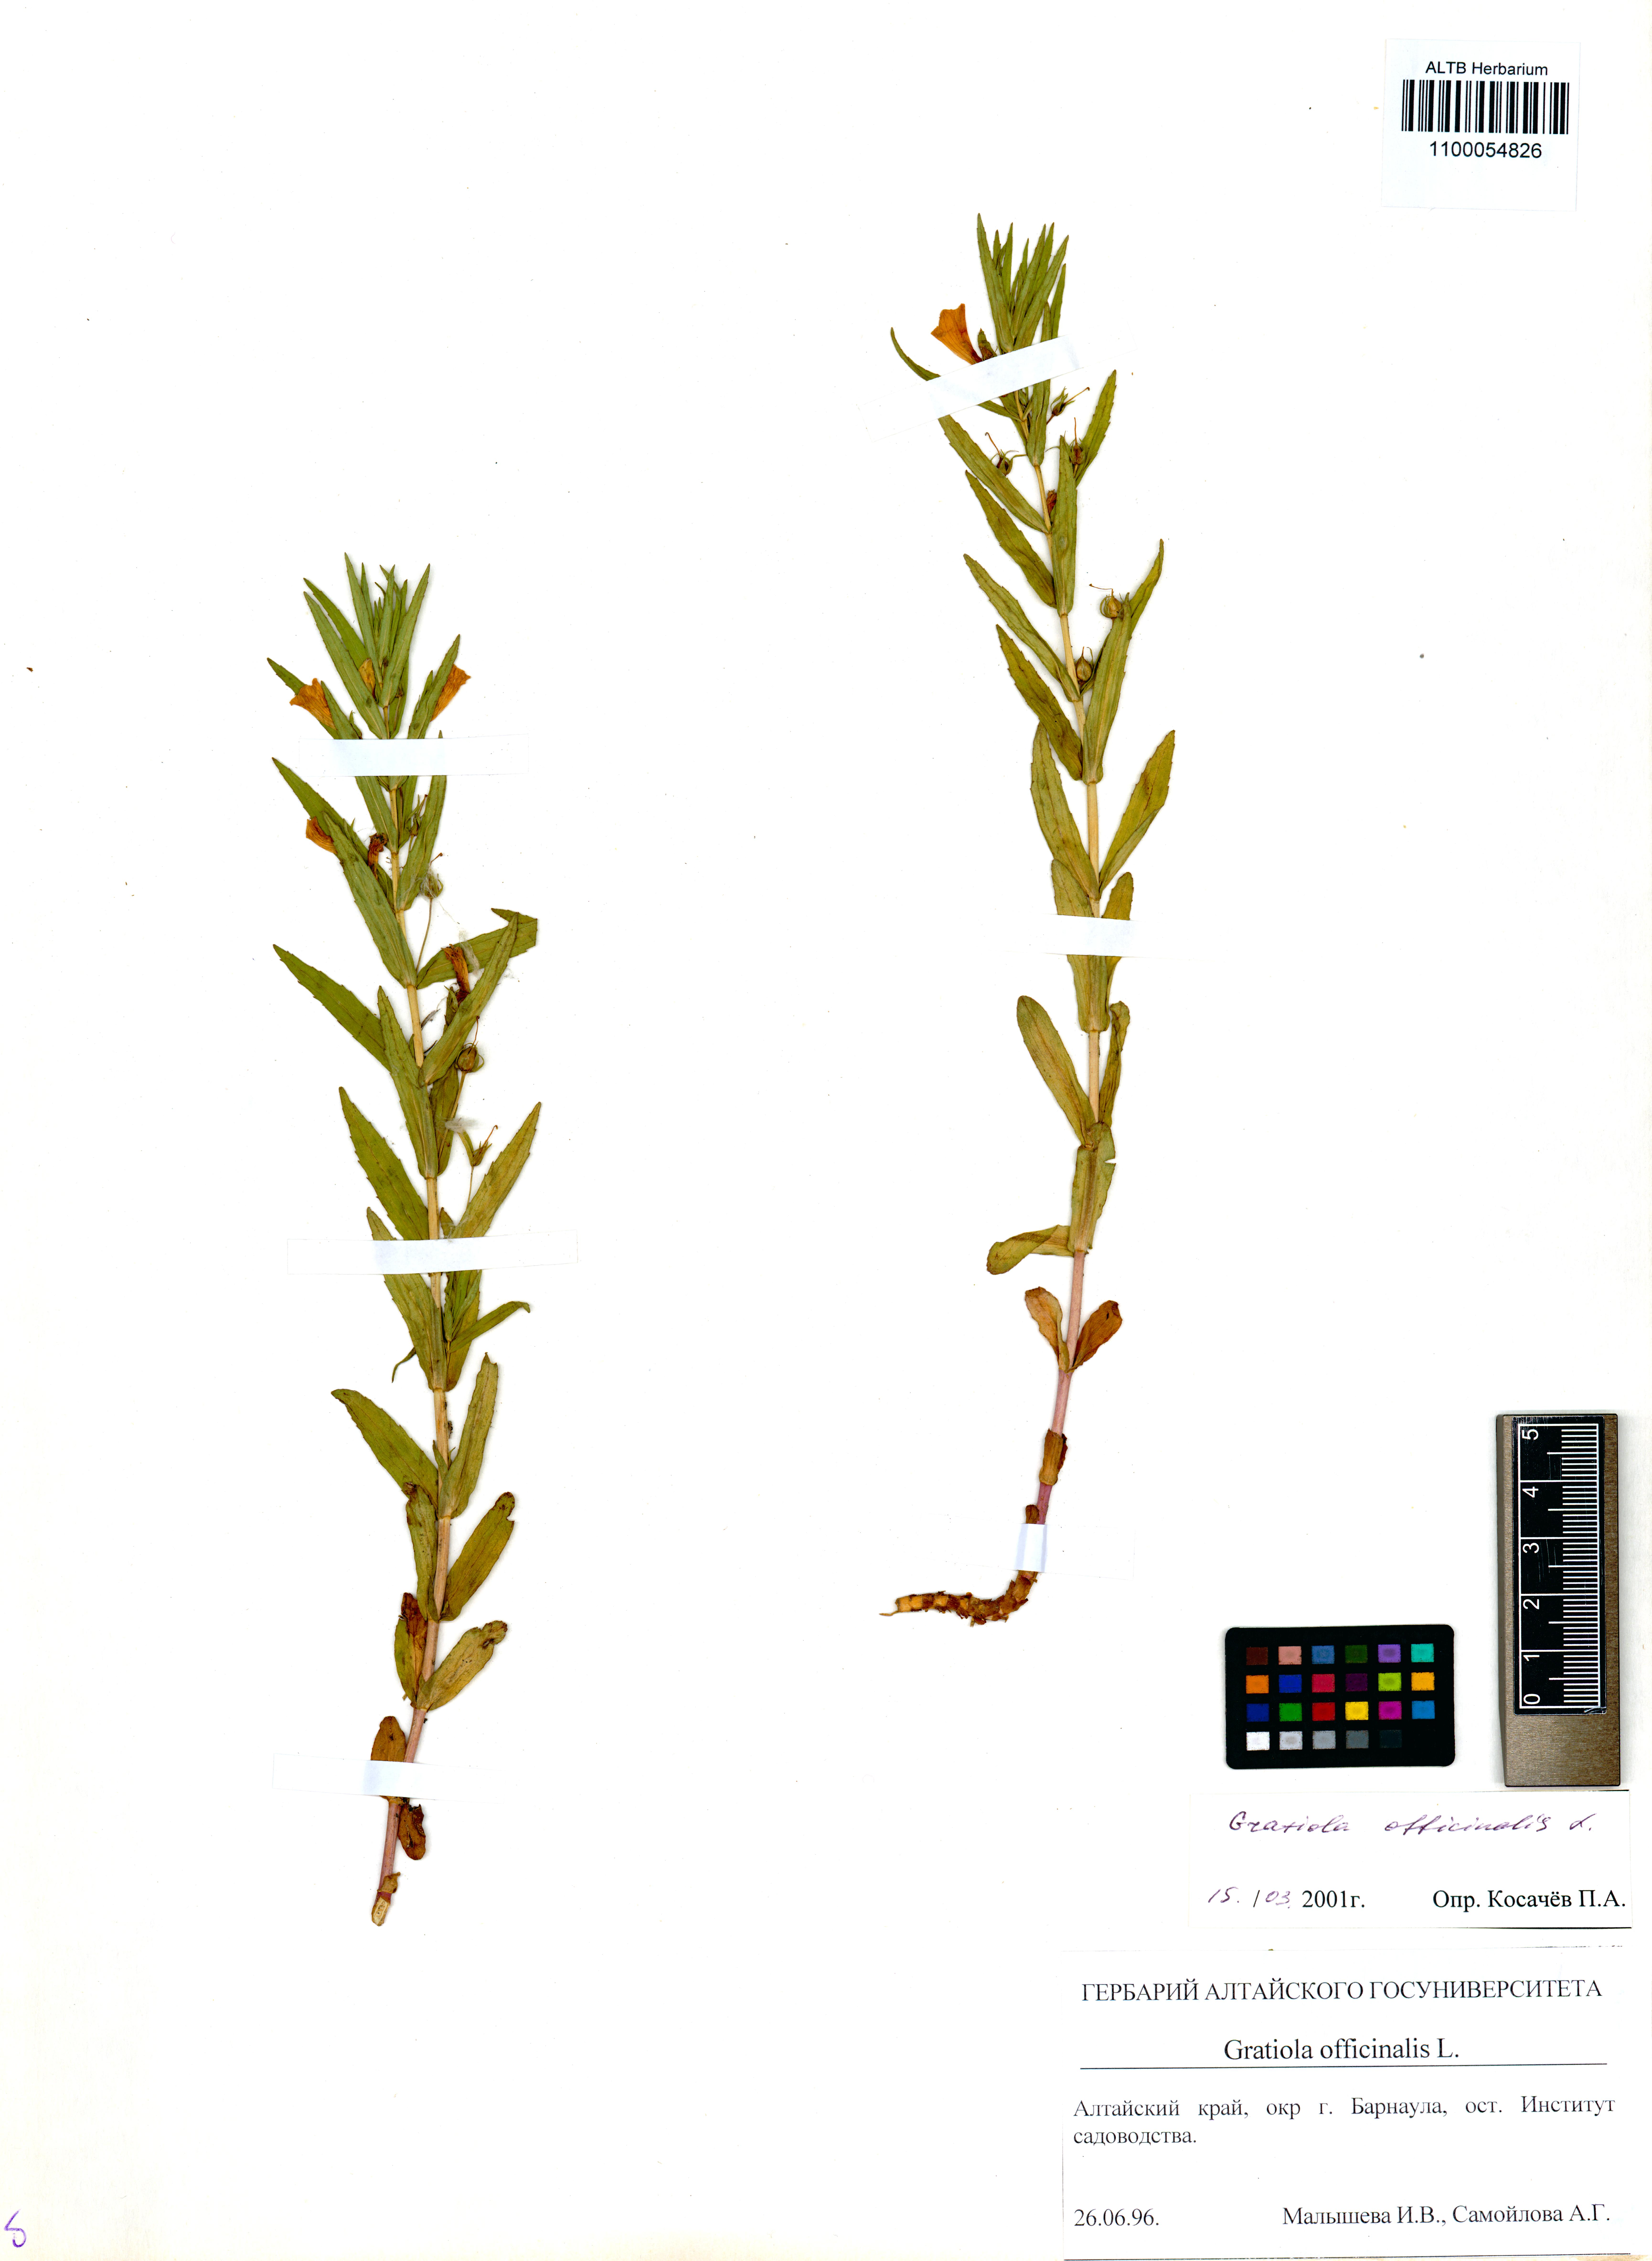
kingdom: Plantae
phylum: Tracheophyta
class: Magnoliopsida
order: Lamiales
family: Plantaginaceae
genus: Gratiola
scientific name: Gratiola officinalis
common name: Gratiola
